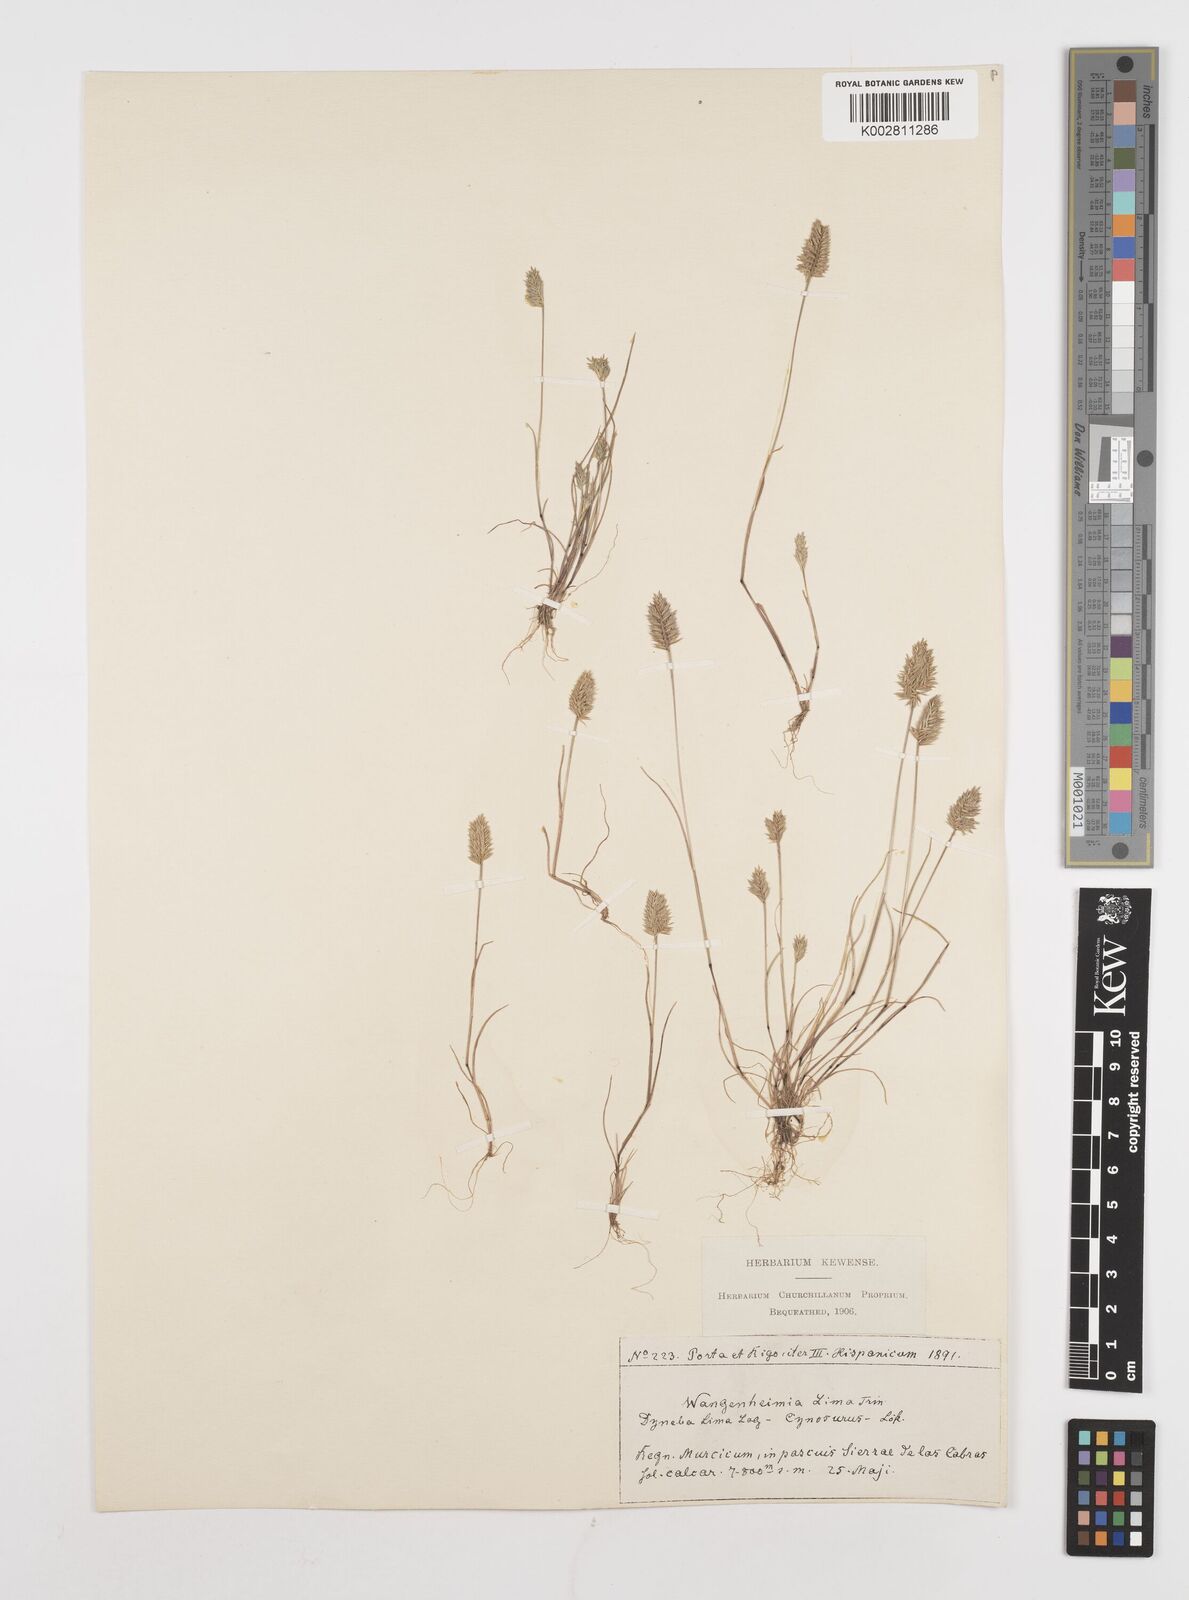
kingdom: Plantae
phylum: Tracheophyta
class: Liliopsida
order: Poales
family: Poaceae
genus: Wangenheimia
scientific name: Wangenheimia lima
